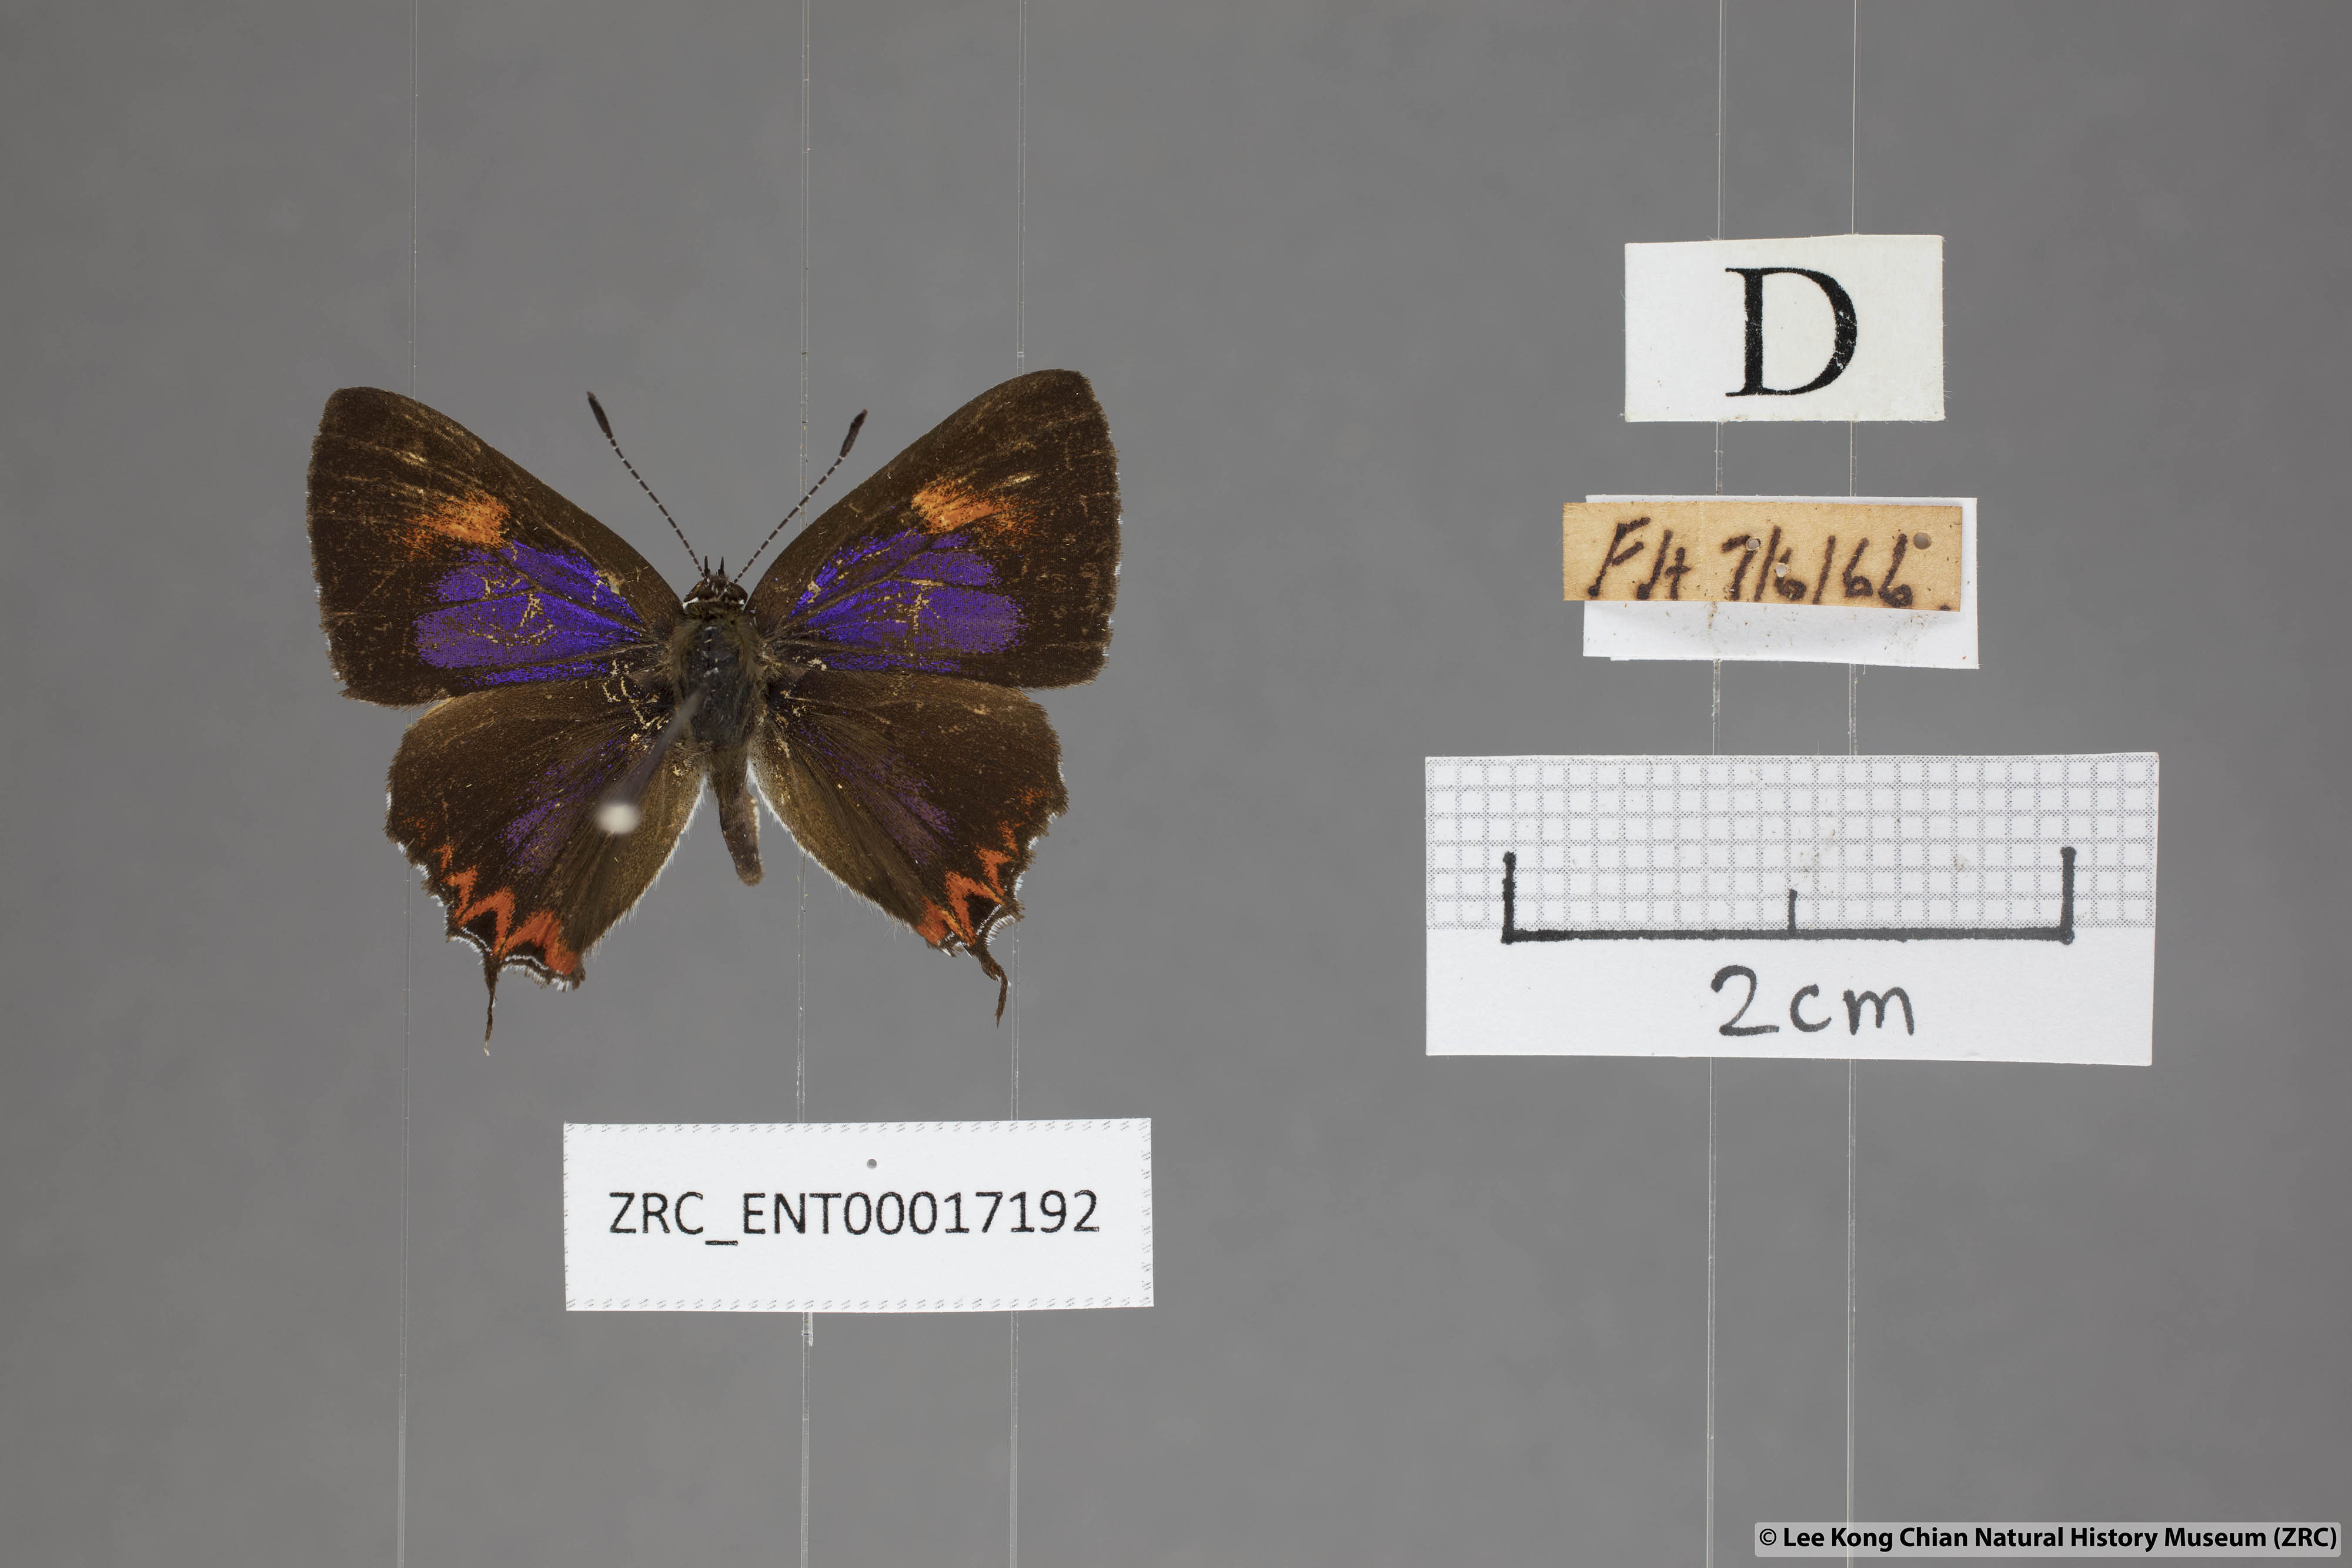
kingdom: Animalia
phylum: Arthropoda
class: Insecta
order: Lepidoptera
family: Lycaenidae
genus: Heliophorus
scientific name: Heliophorus epicles
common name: Purple sapphire
